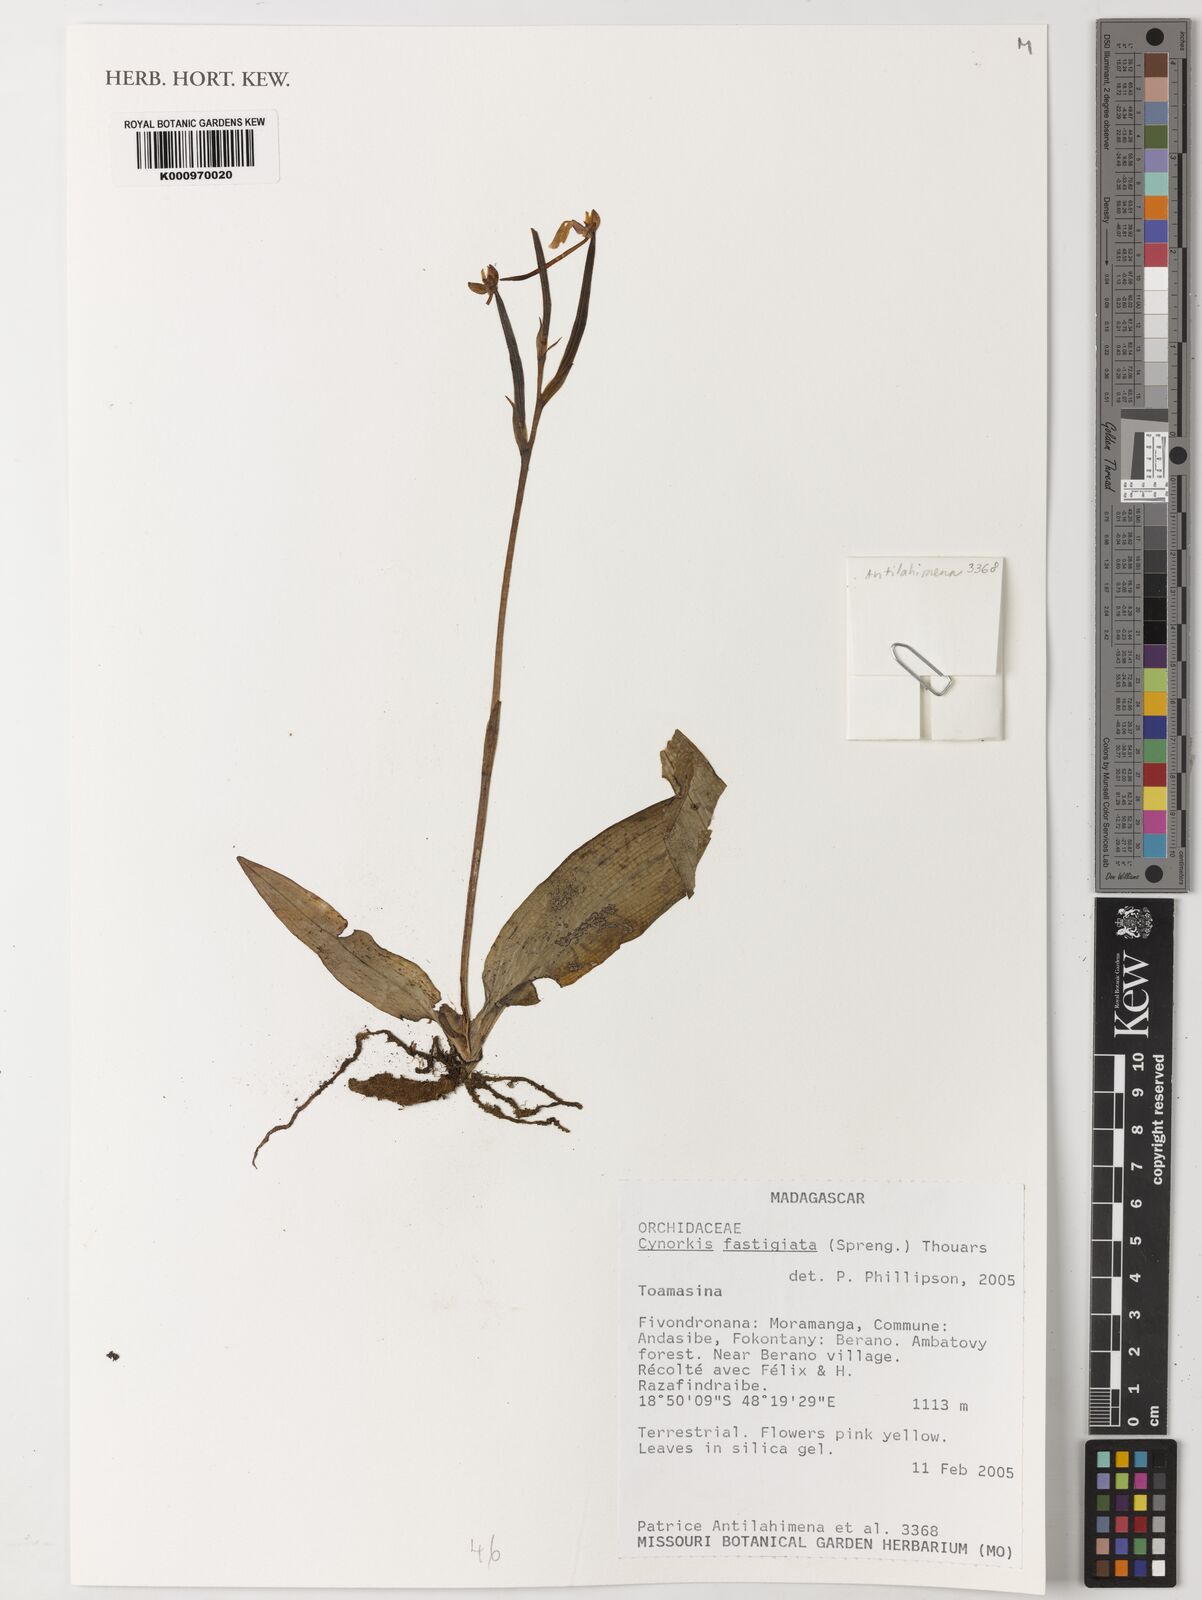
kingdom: Plantae
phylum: Tracheophyta
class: Liliopsida
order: Asparagales
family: Orchidaceae
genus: Cynorkis
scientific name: Cynorkis fastigiata
